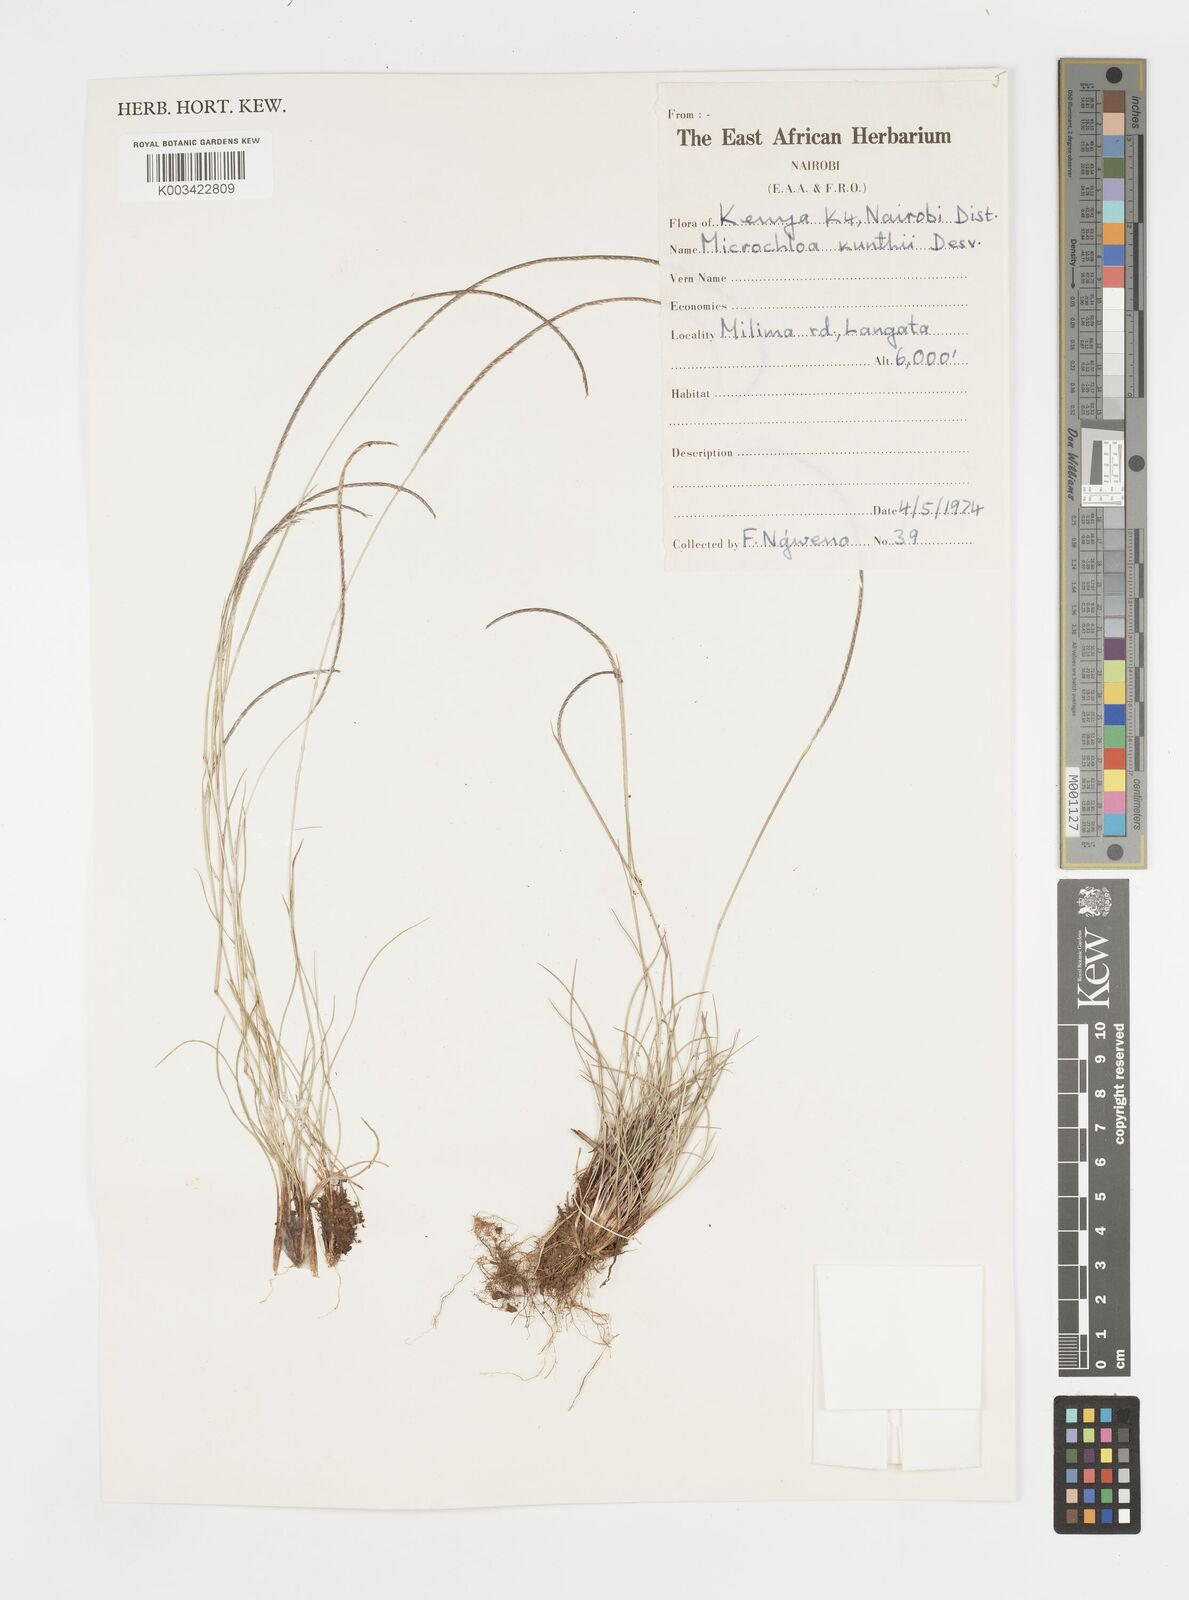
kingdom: Plantae
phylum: Tracheophyta
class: Liliopsida
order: Poales
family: Poaceae
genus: Microchloa
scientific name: Microchloa kunthii
